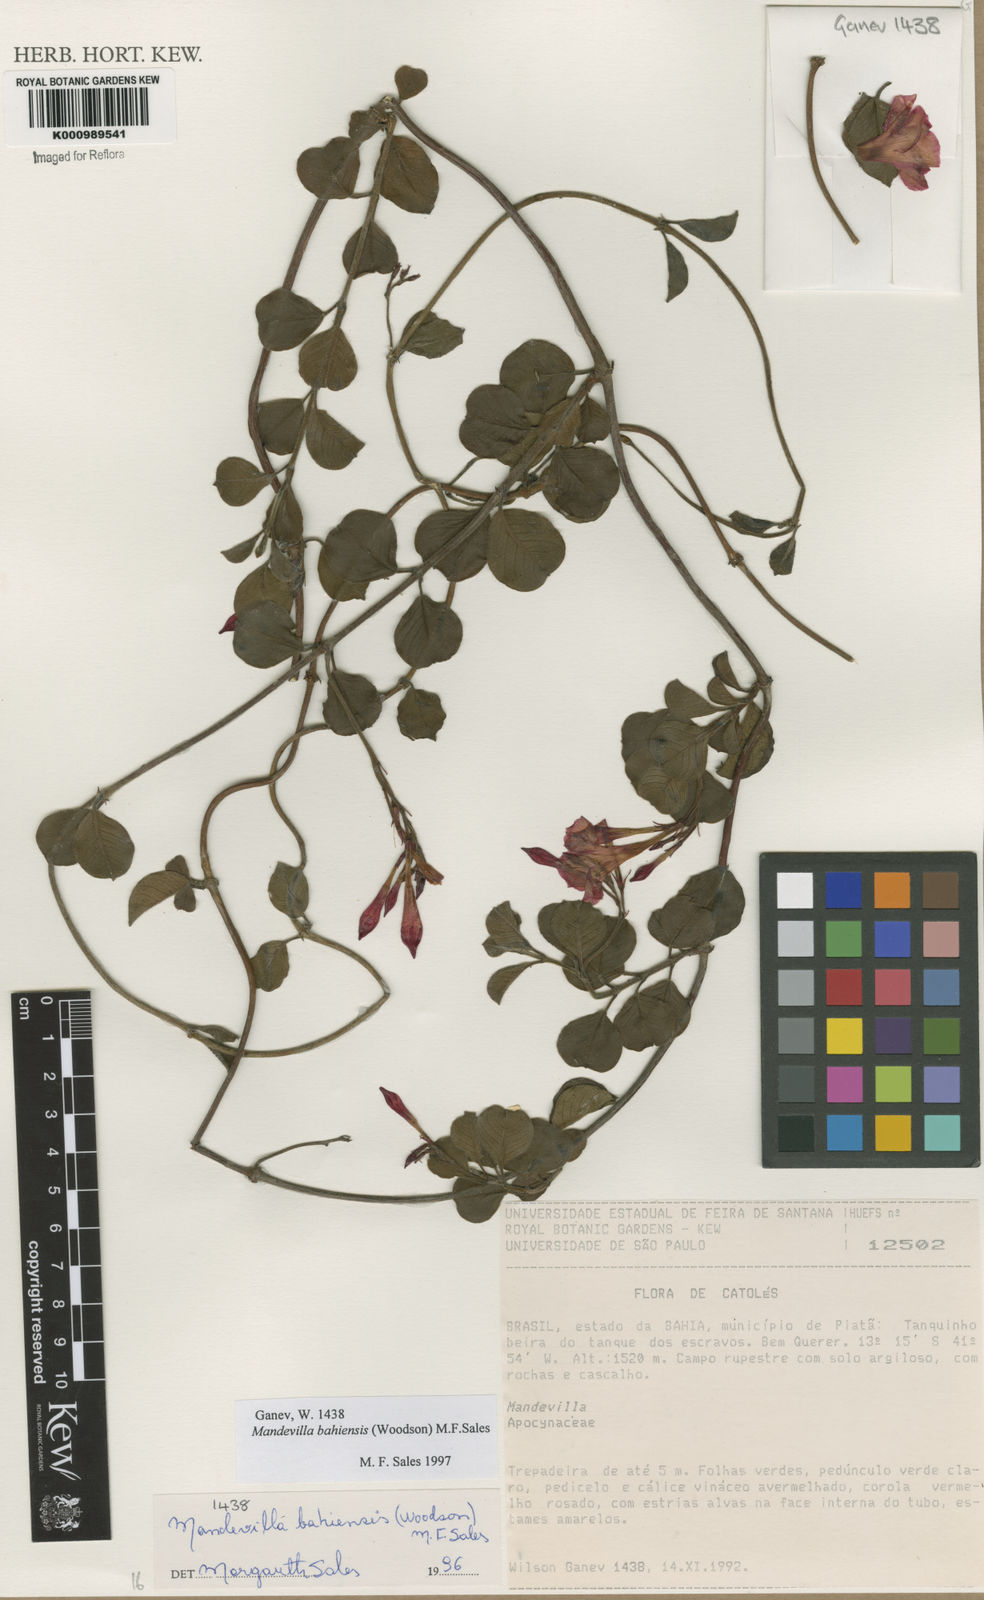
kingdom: Plantae
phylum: Tracheophyta
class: Magnoliopsida
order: Gentianales
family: Apocynaceae
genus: Mandevilla
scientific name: Mandevilla bahiensis
